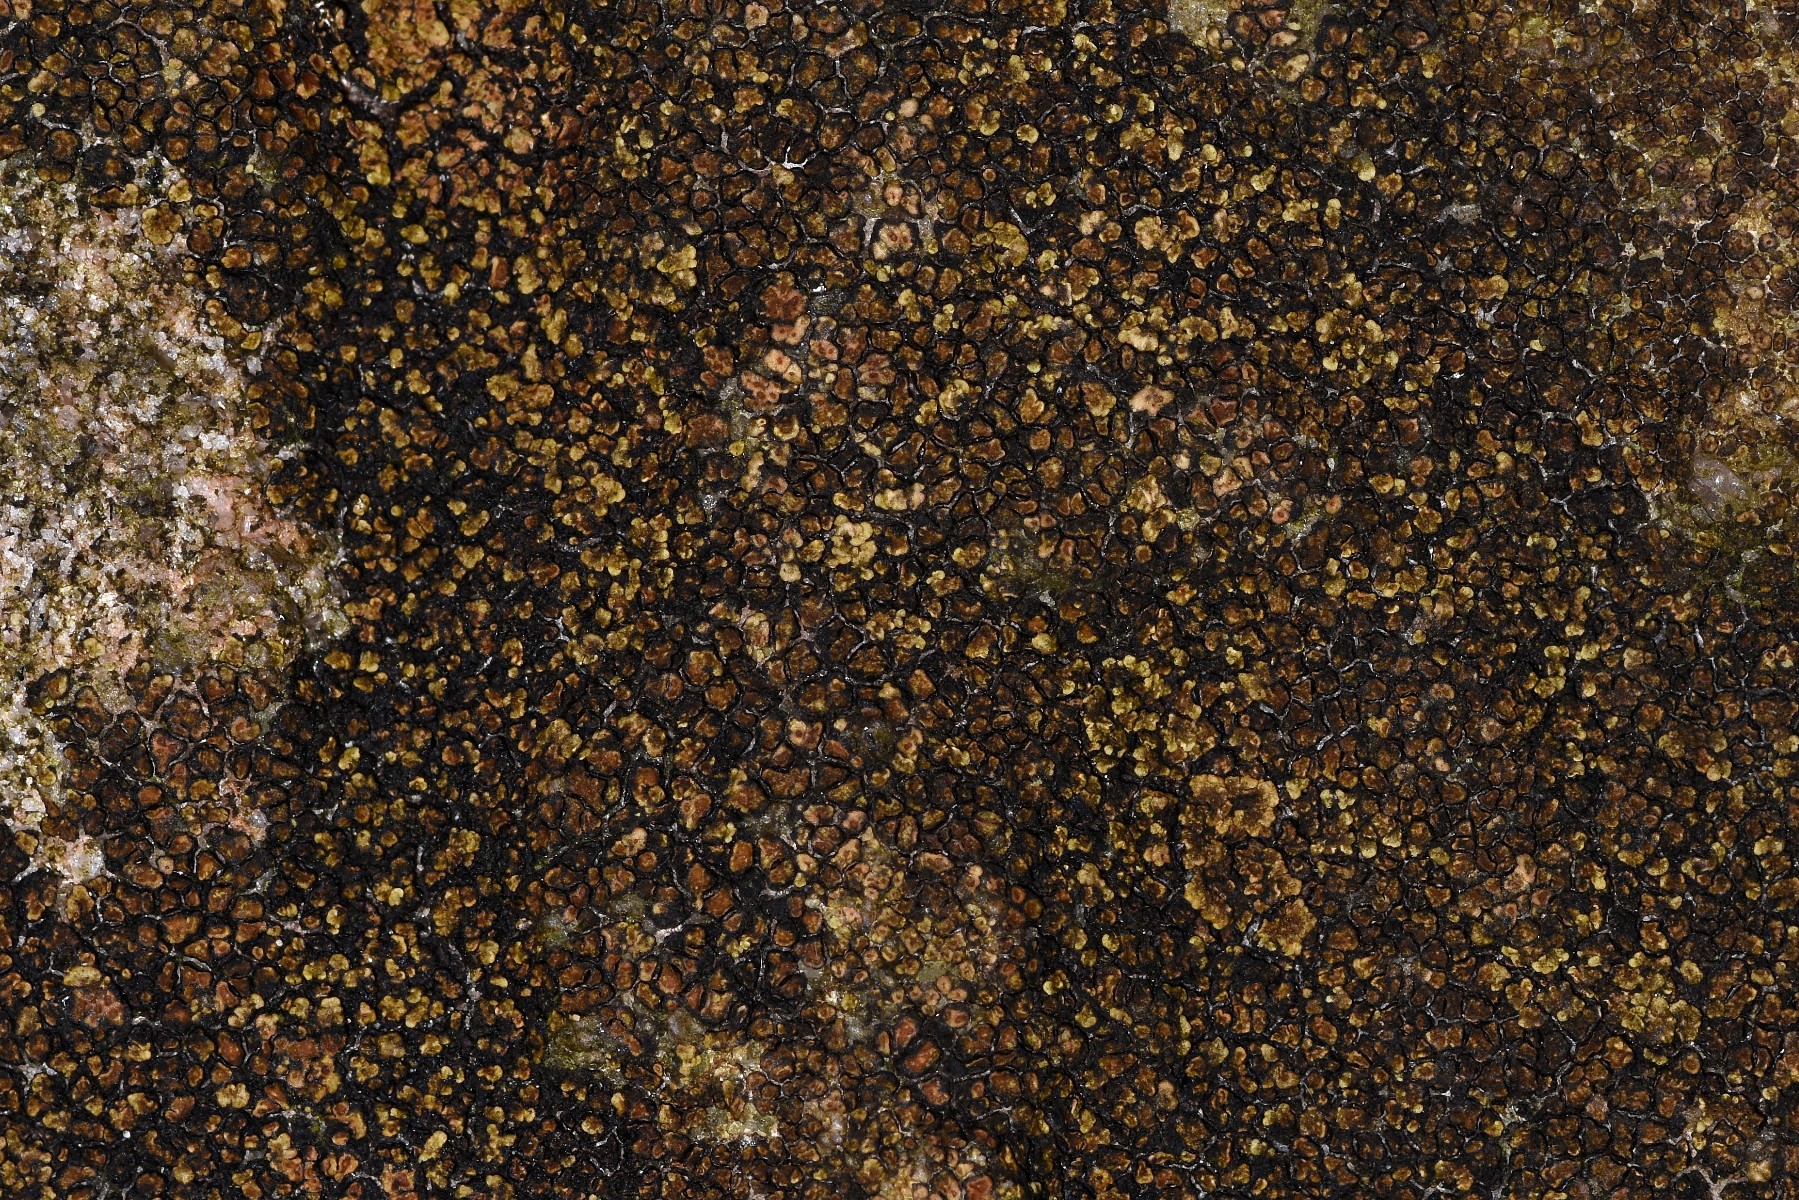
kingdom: Fungi
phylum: Ascomycota
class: Lecanoromycetes
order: Acarosporales
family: Acarosporaceae
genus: Acarospora
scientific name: Acarospora fuscata
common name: brun småsporelav
